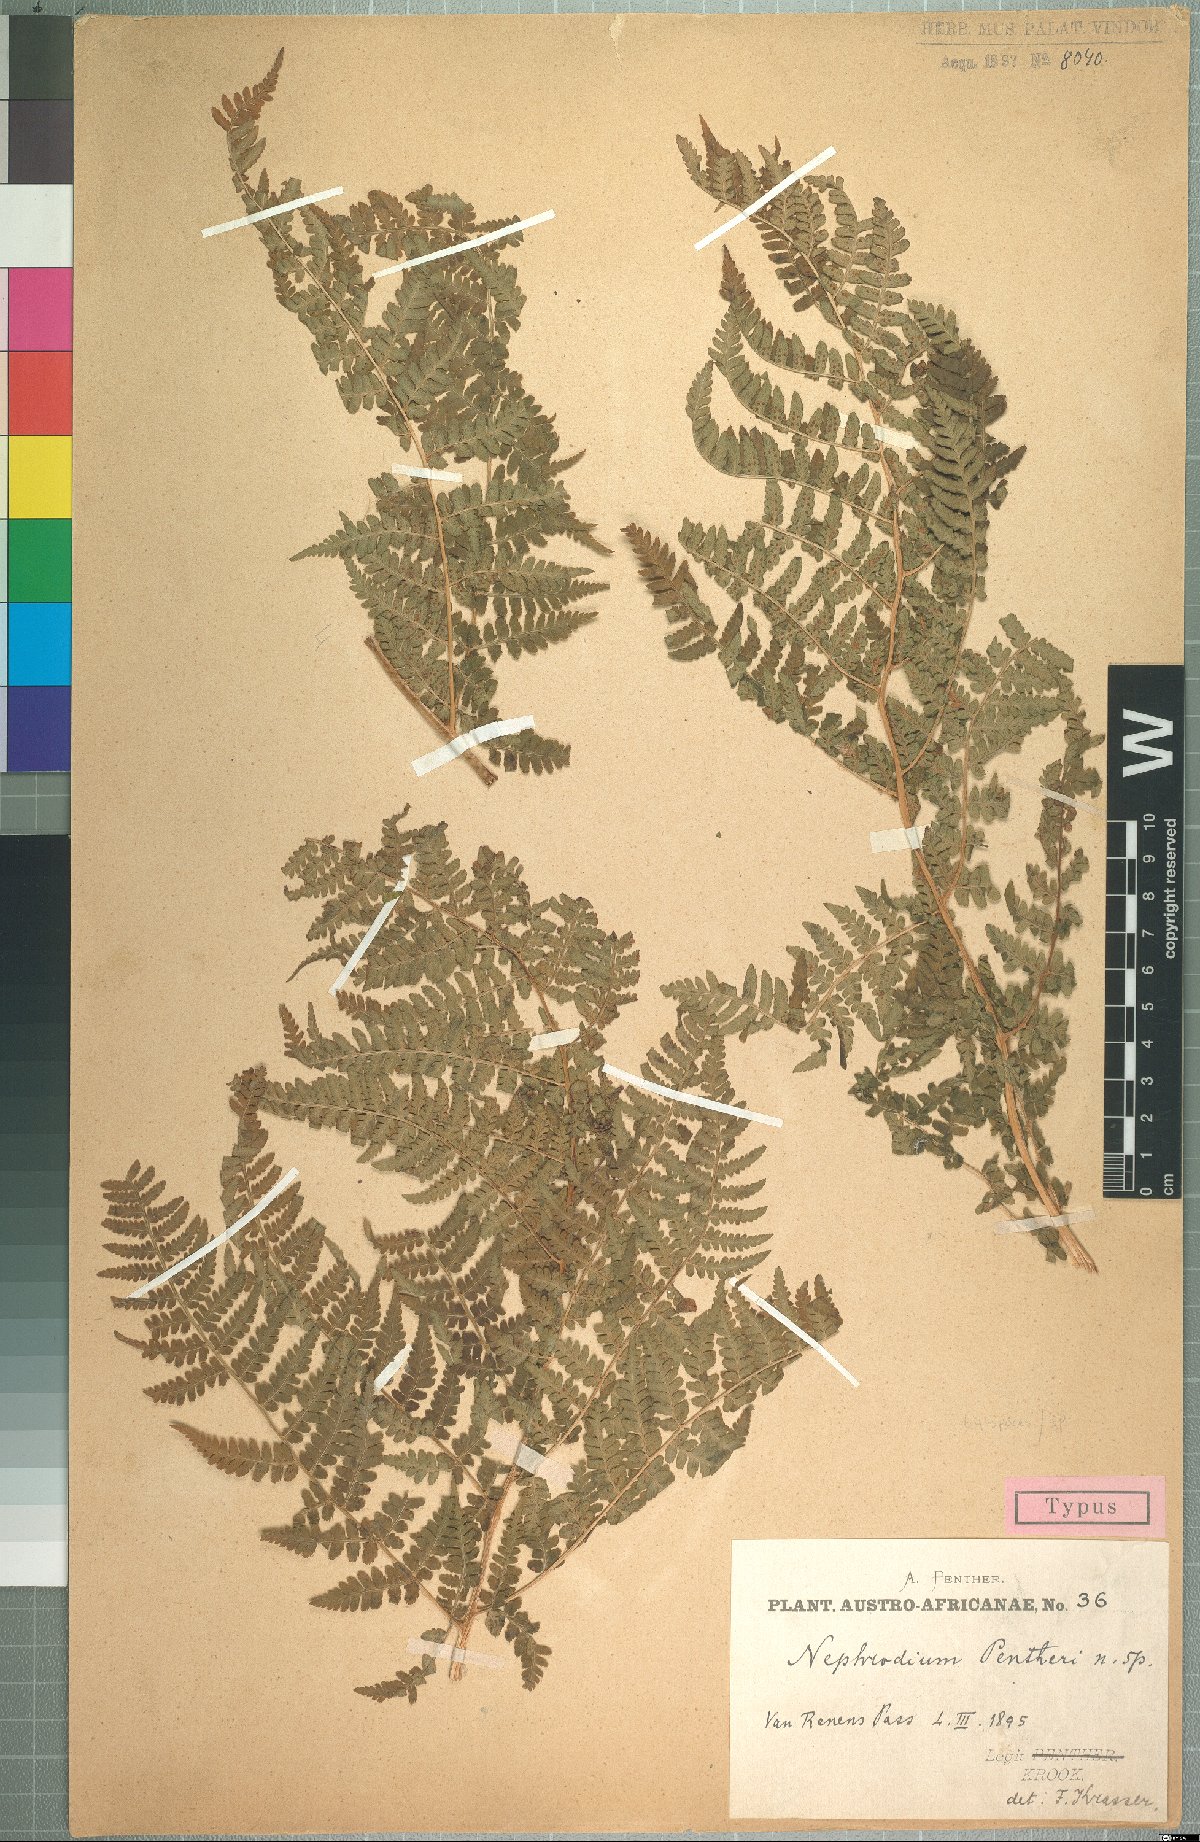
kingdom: Plantae
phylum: Tracheophyta
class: Polypodiopsida
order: Polypodiales
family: Dryopteridaceae
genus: Dryopteris
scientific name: Dryopteris pentheri
